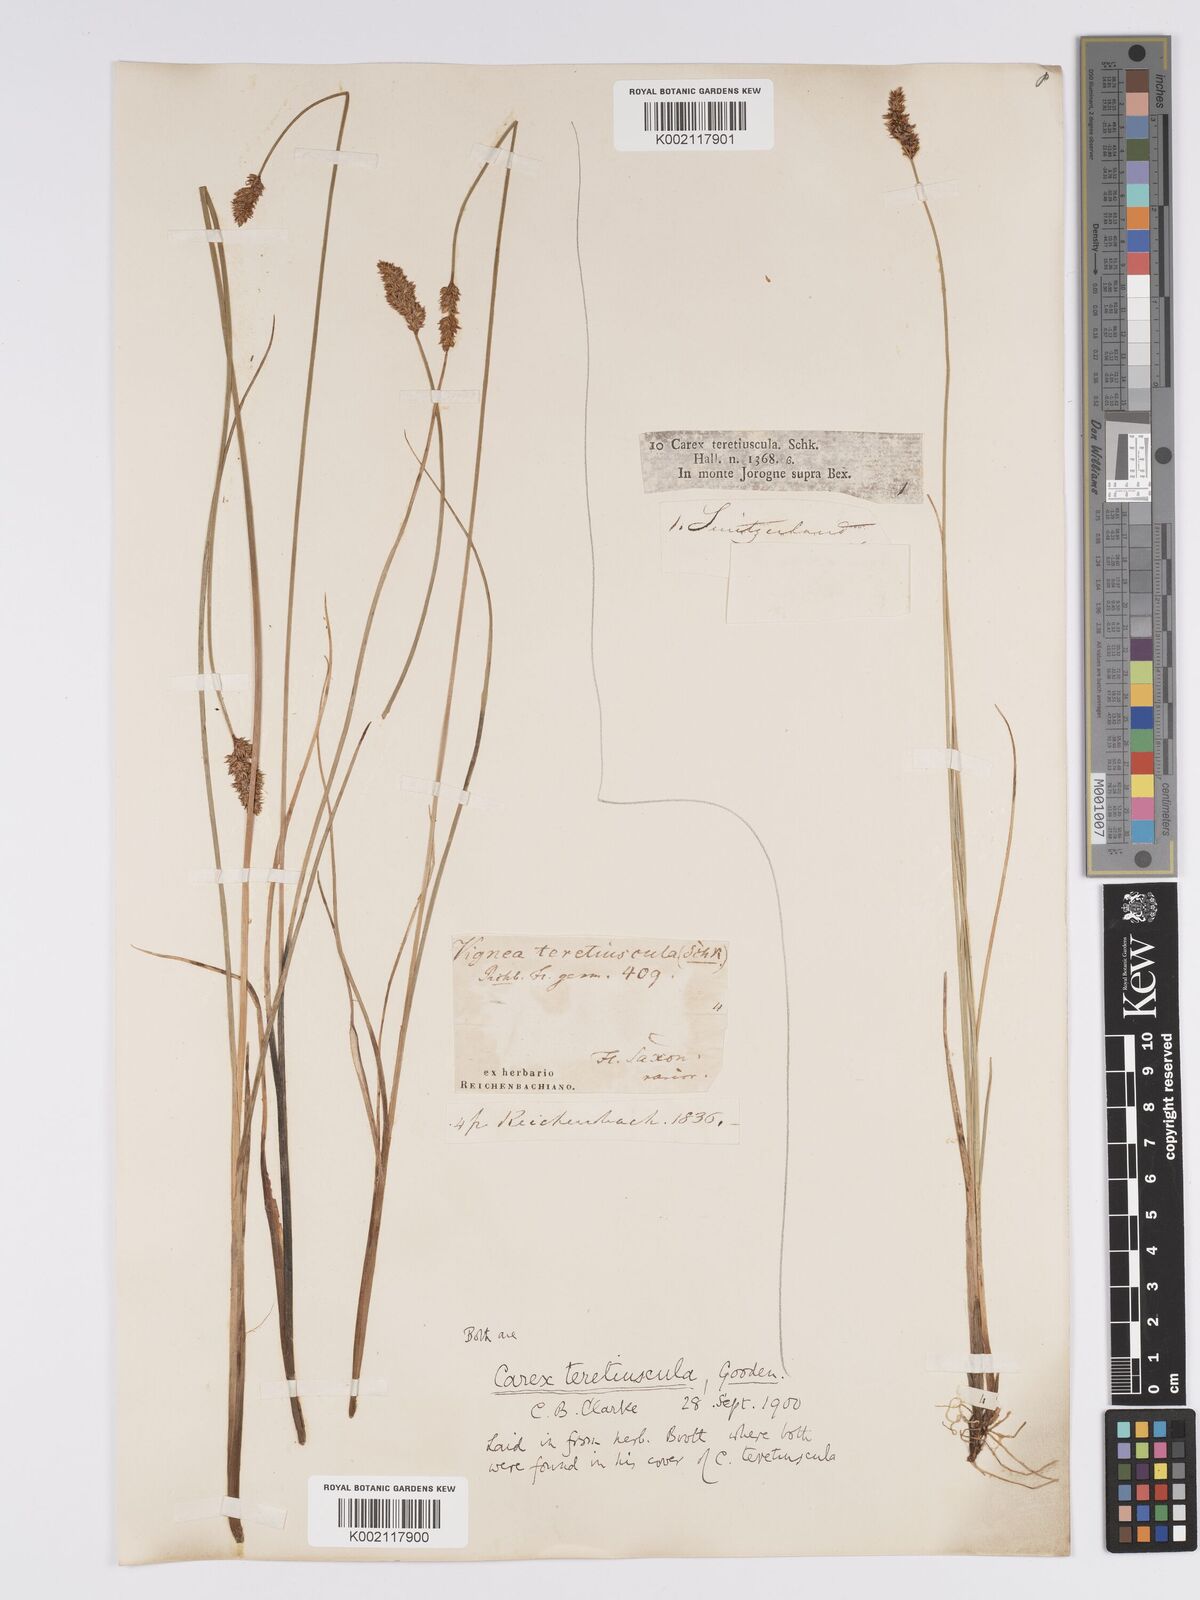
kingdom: Plantae
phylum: Tracheophyta
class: Liliopsida
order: Poales
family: Cyperaceae
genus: Carex
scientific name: Carex diandra
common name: Lesser tussock-sedge
